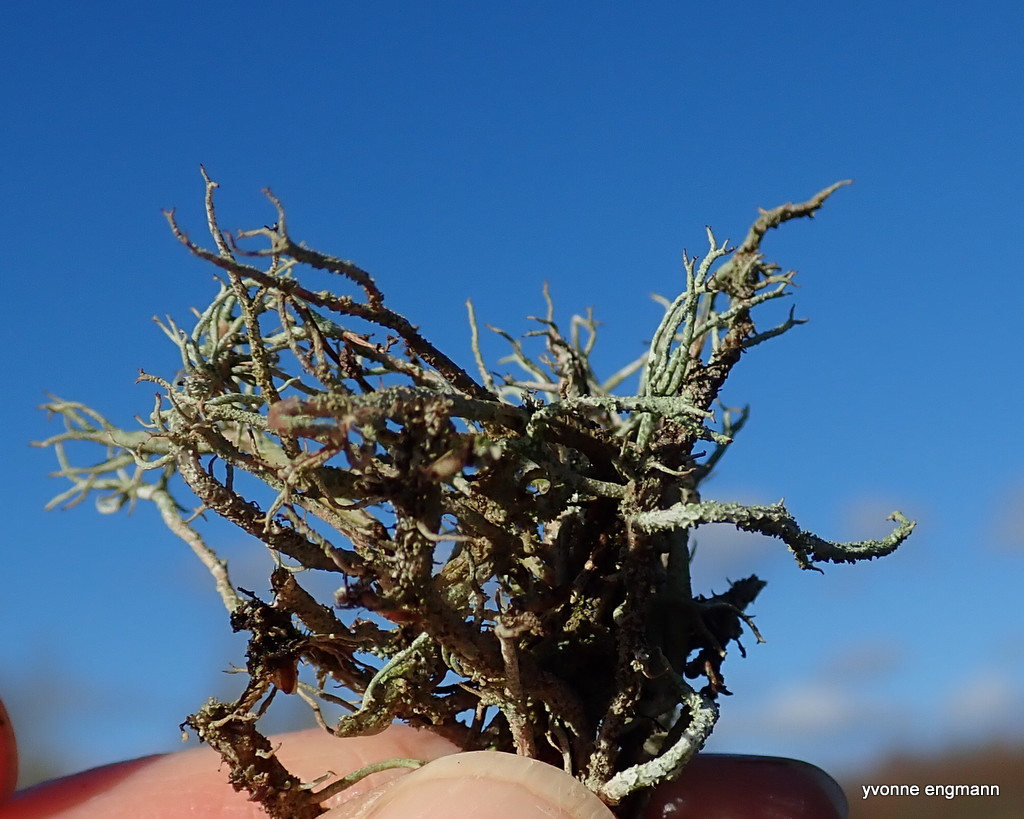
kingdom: Fungi
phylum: Ascomycota
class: Lecanoromycetes
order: Lecanorales
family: Cladoniaceae
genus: Cladonia
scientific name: Cladonia scabriuscula
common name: ru bægerlav
